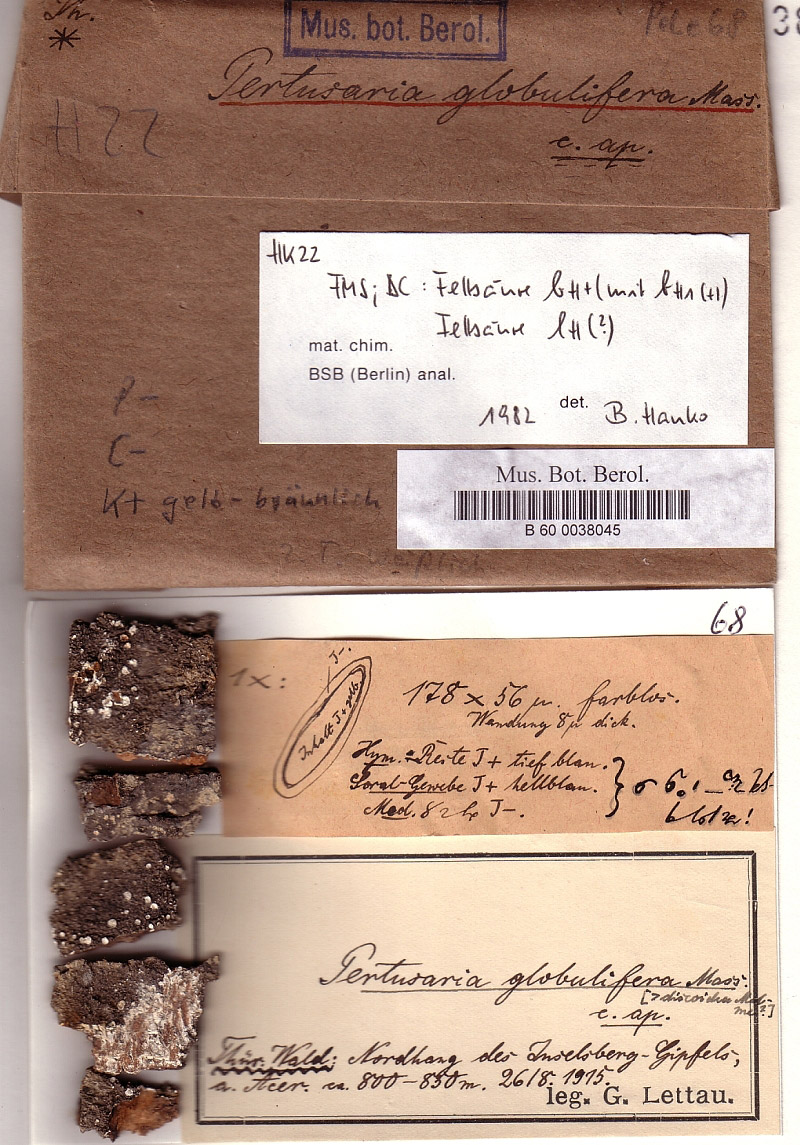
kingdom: Fungi
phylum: Ascomycota
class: Lecanoromycetes
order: Pertusariales
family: Pertusariaceae
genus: Lepra
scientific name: Lepra albescens
